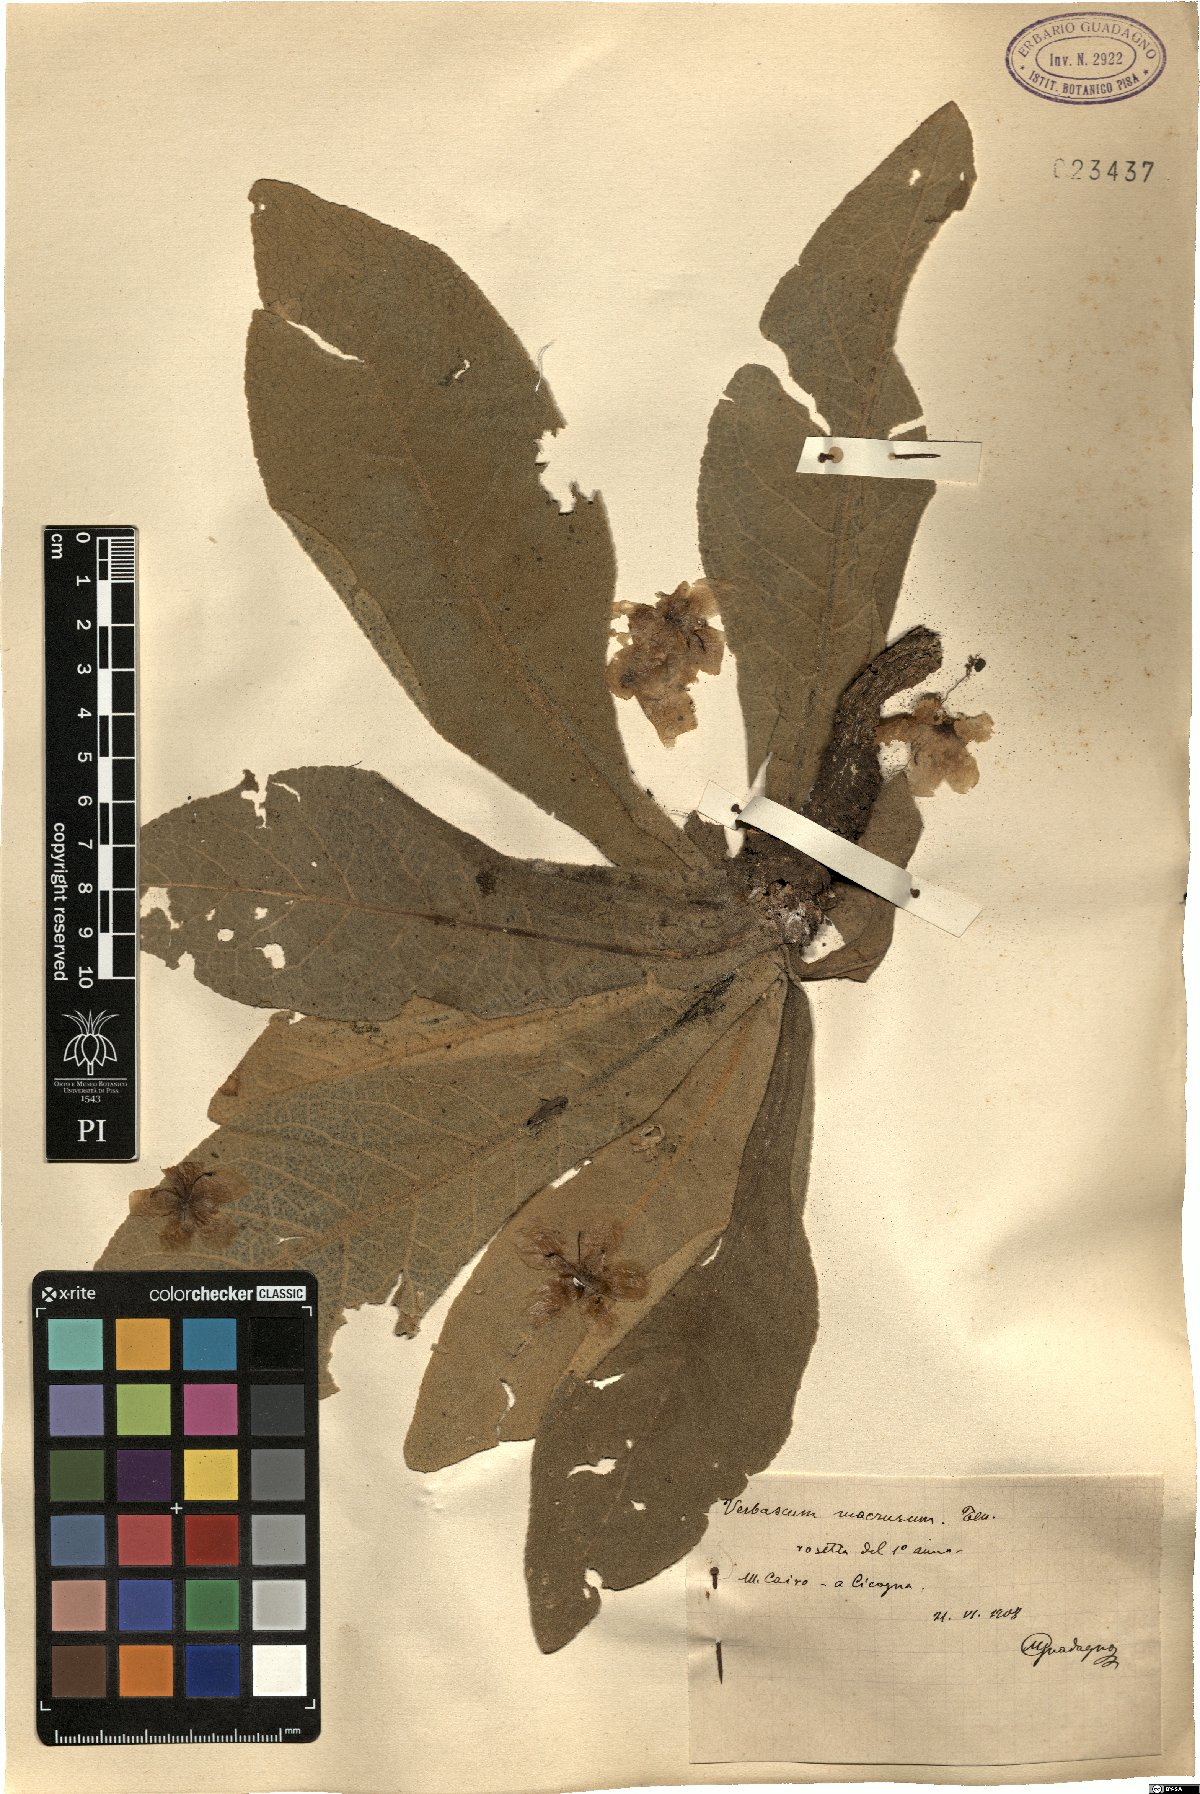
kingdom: Plantae
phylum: Tracheophyta
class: Magnoliopsida
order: Lamiales
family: Scrophulariaceae
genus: Verbascum
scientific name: Verbascum macrurum
